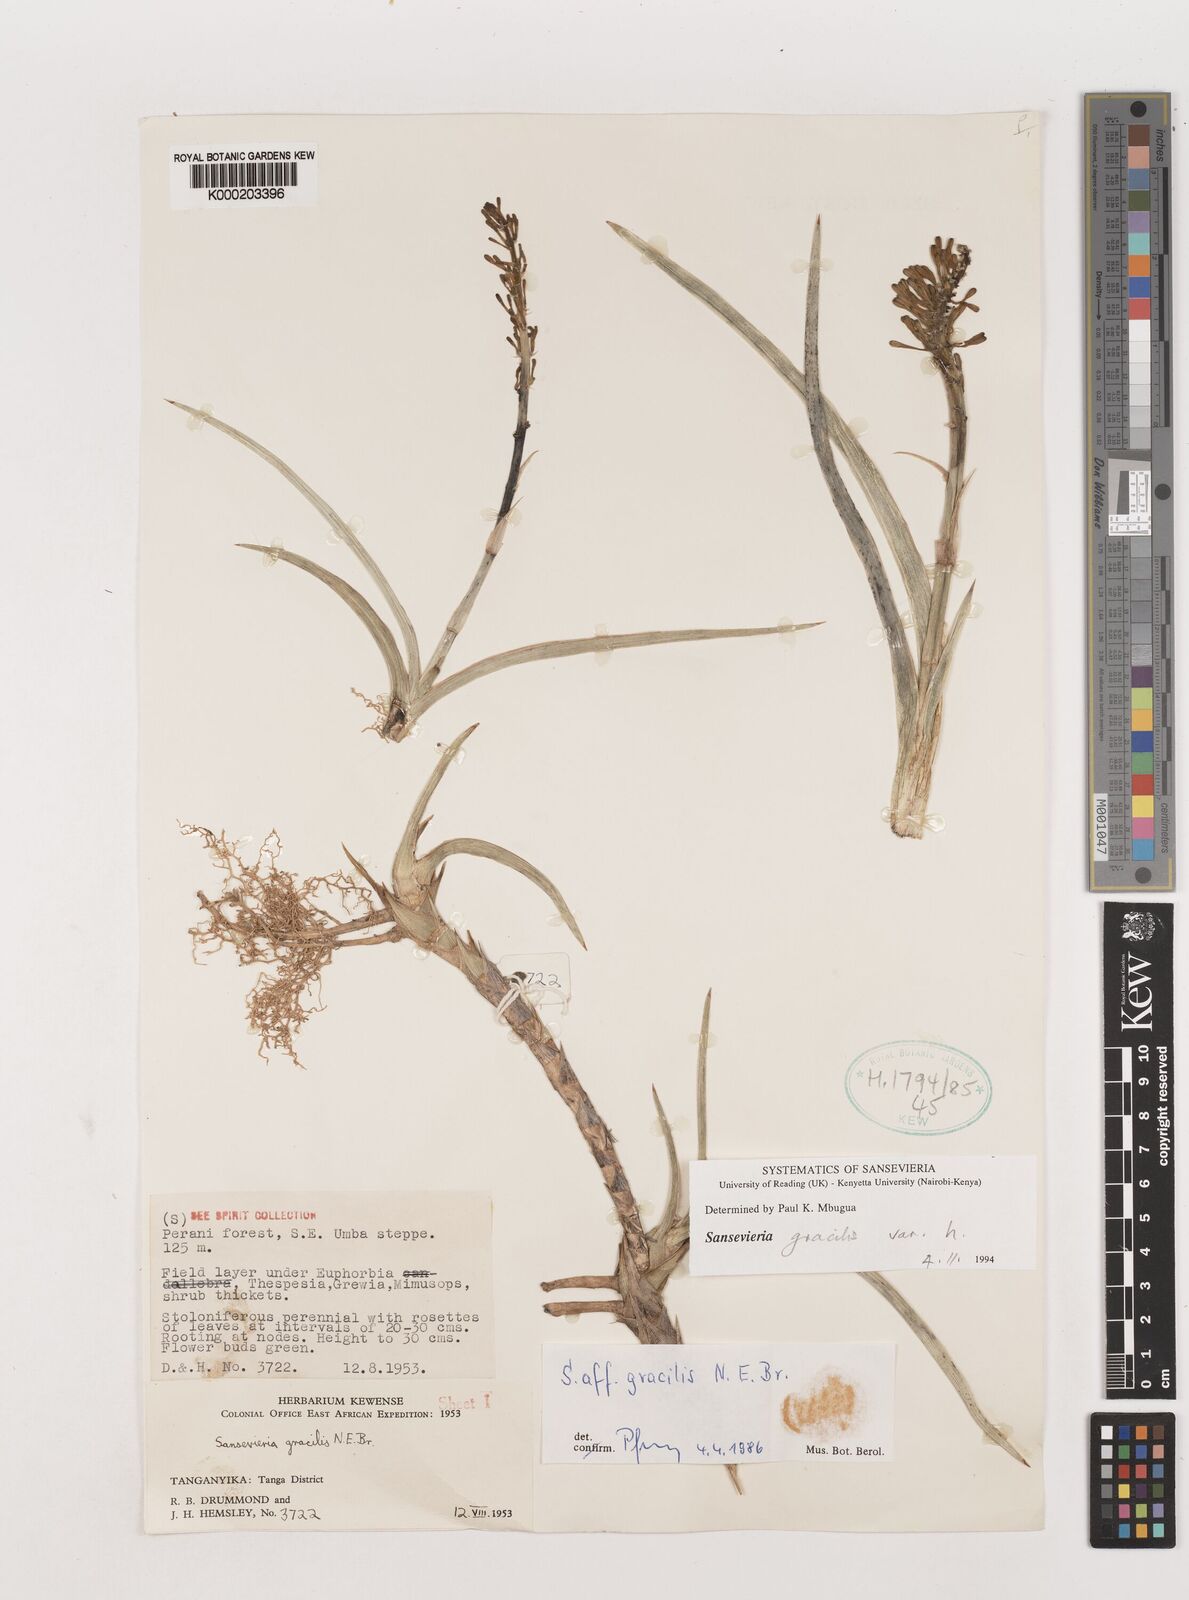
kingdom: Plantae
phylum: Tracheophyta
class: Liliopsida
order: Asparagales
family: Asparagaceae
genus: Dracaena
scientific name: Dracaena serpenta
